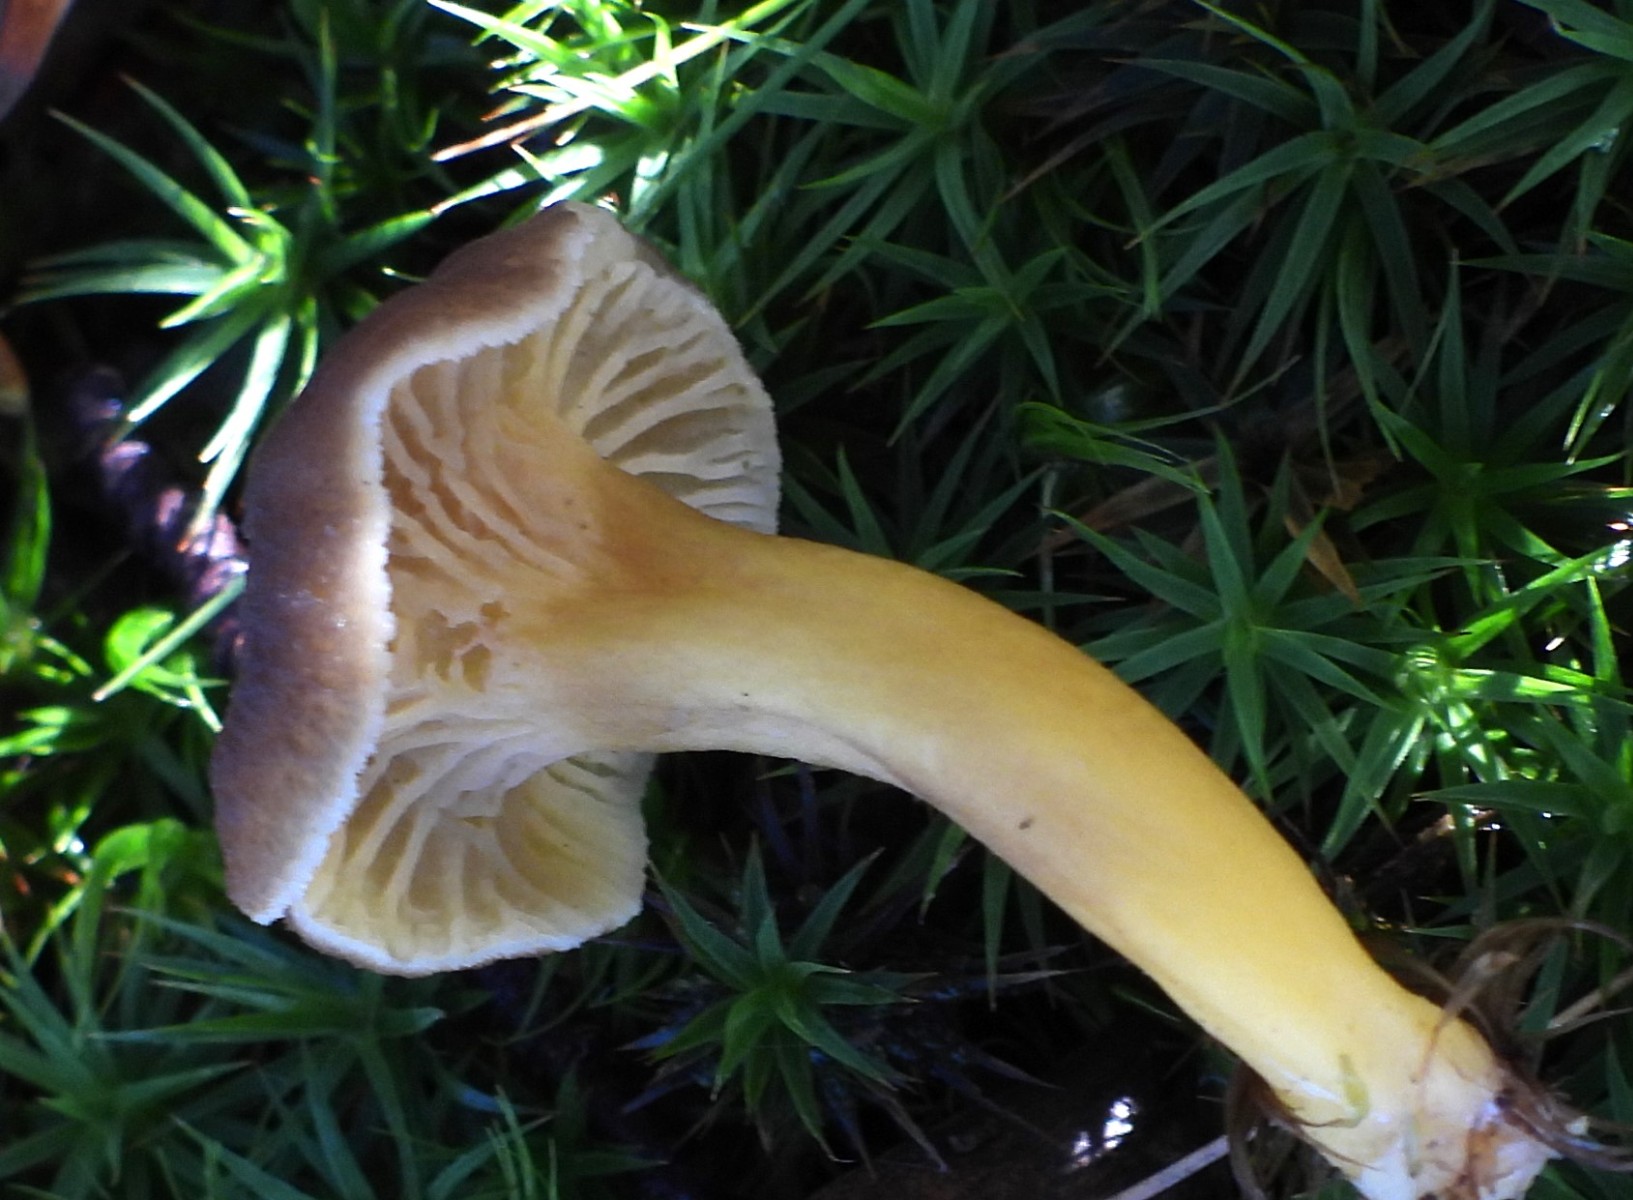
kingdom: Fungi
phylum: Basidiomycota
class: Agaricomycetes
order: Cantharellales
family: Hydnaceae
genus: Craterellus
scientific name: Craterellus tubaeformis
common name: tragt-kantarel
